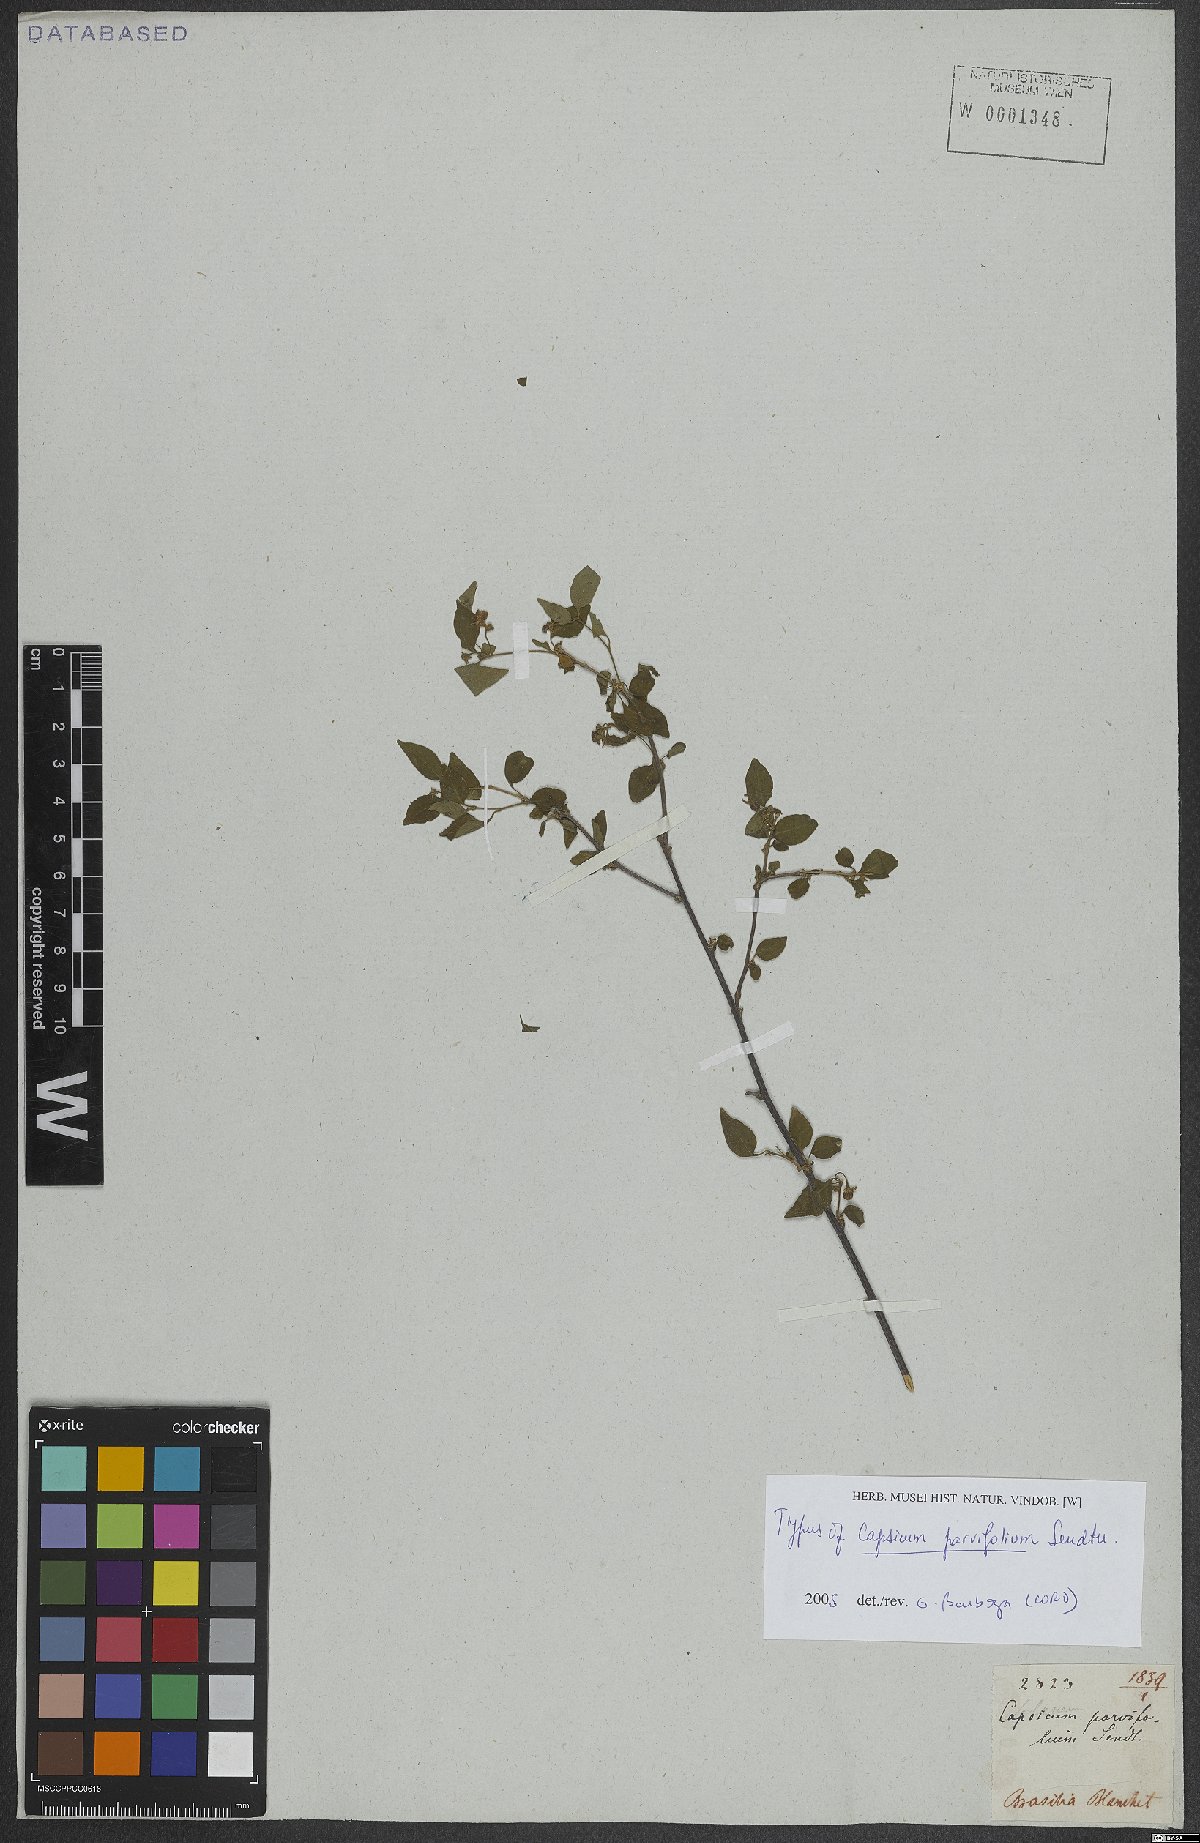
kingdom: Plantae
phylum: Tracheophyta
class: Magnoliopsida
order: Solanales
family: Solanaceae
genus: Capsicum
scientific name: Capsicum parvifolium
